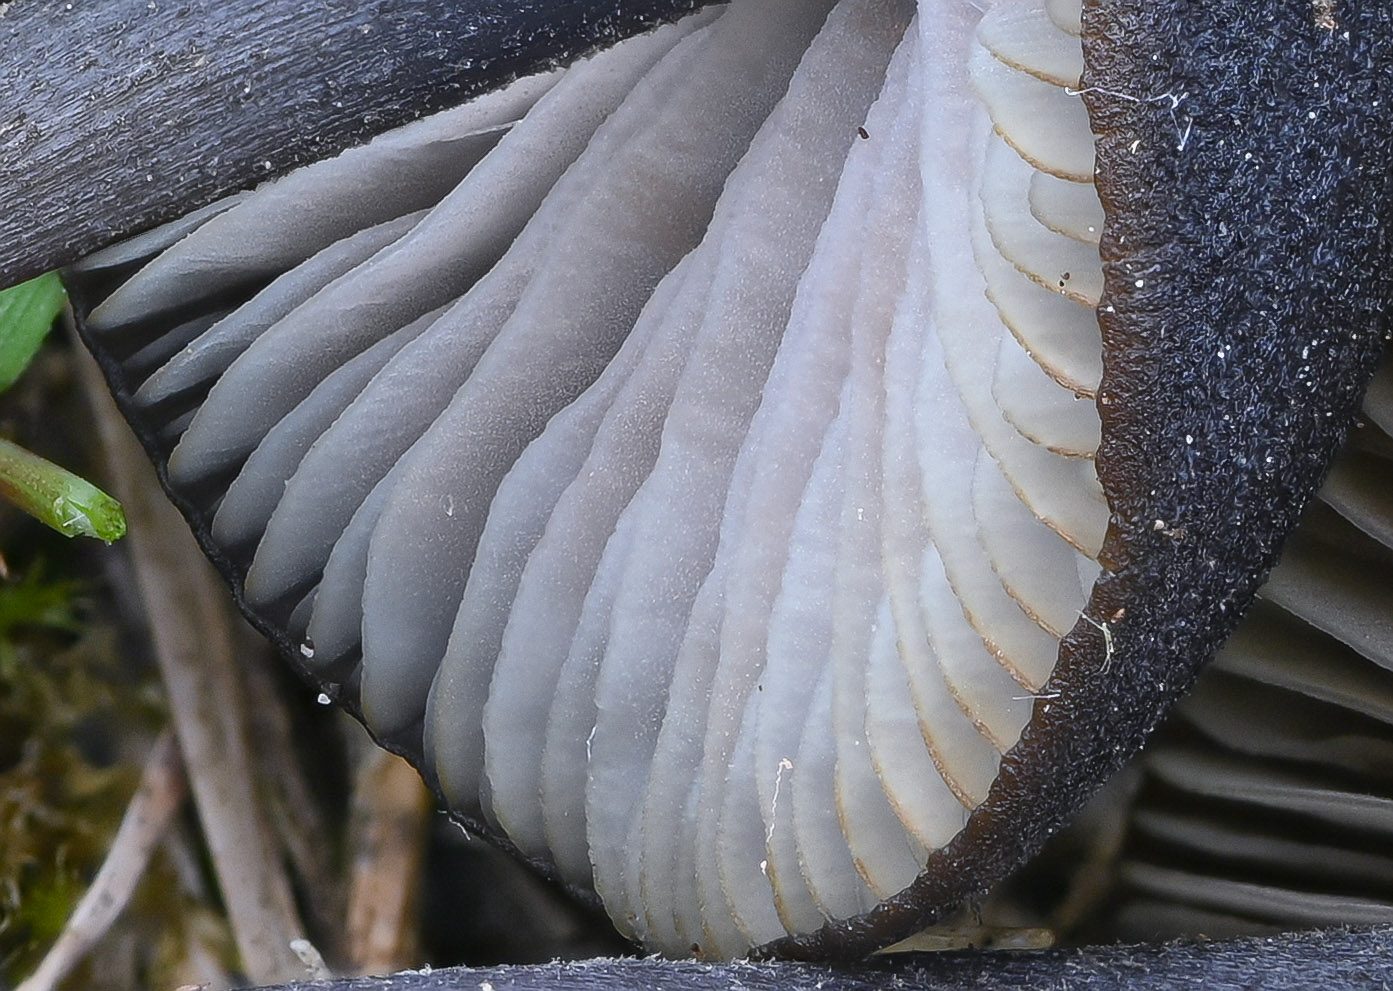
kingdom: Fungi
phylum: Basidiomycota
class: Agaricomycetes
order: Agaricales
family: Entolomataceae
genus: Entoloma
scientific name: Entoloma chalybeum
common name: blåbladet rødblad
